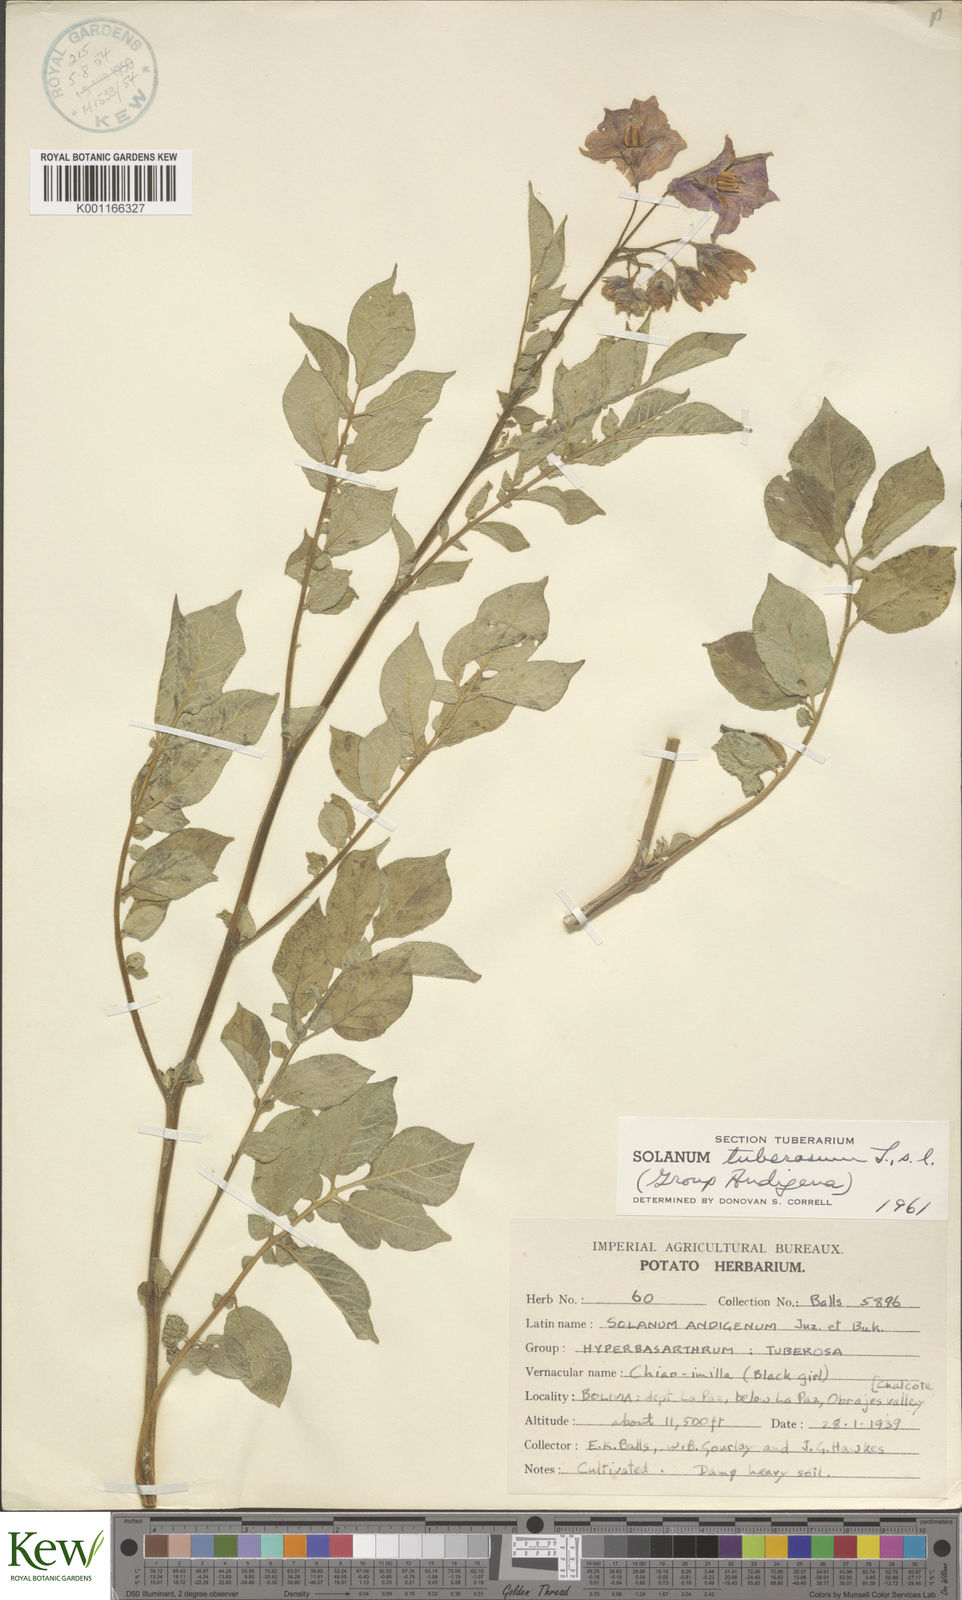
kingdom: Plantae
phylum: Tracheophyta
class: Magnoliopsida
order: Solanales
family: Solanaceae
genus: Solanum
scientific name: Solanum tuberosum
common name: Potato
